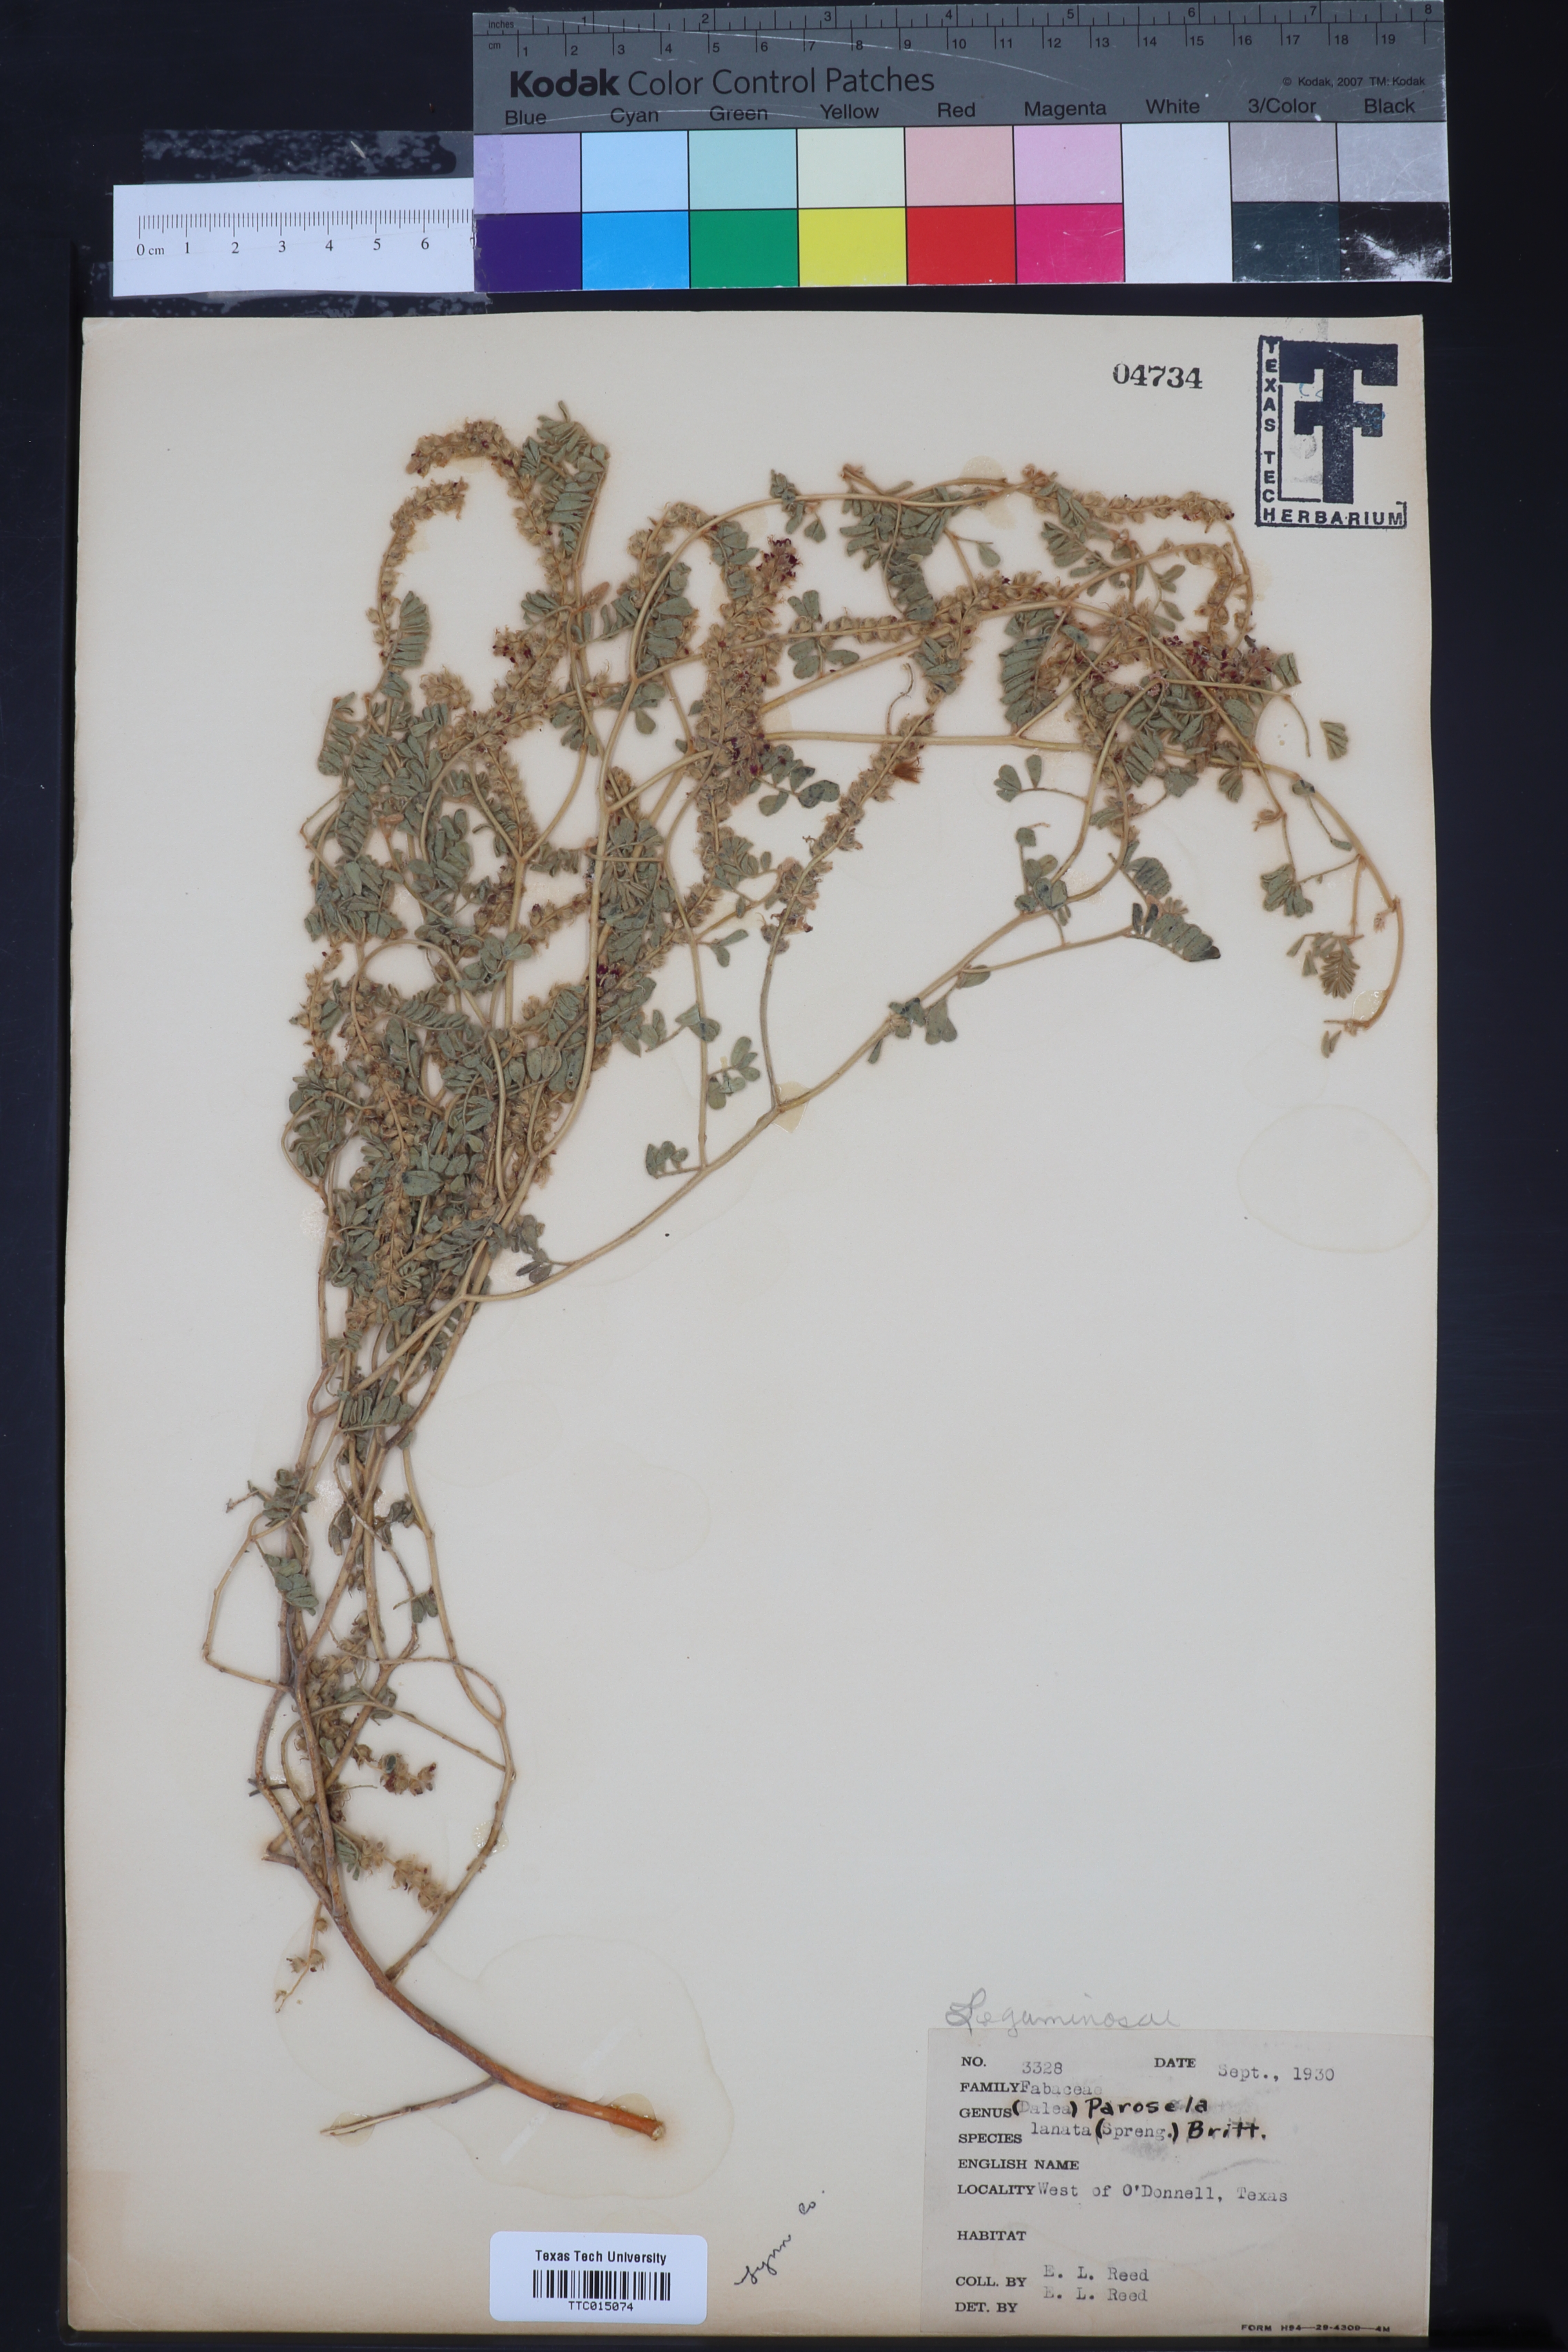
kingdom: Plantae
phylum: Tracheophyta
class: Magnoliopsida
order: Fabales
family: Fabaceae
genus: Dalea
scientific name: Dalea lanata
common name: Woolly dalea
